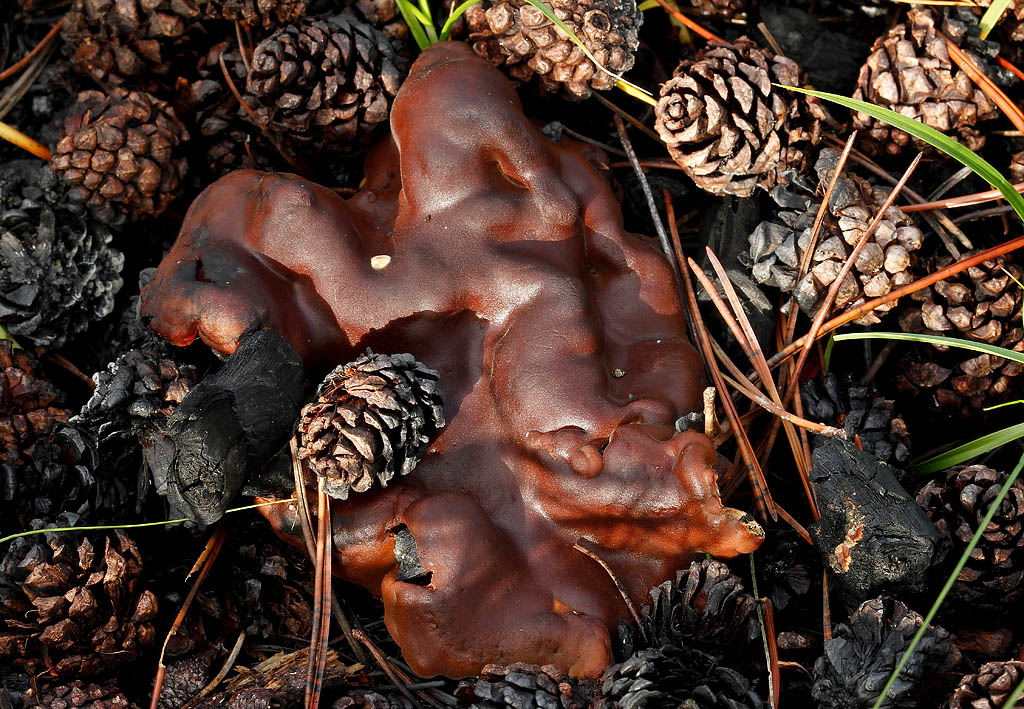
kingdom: Fungi
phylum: Ascomycota
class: Pezizomycetes
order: Pezizales
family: Rhizinaceae
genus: Rhizina
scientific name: Rhizina undulata
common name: rodmorkel
